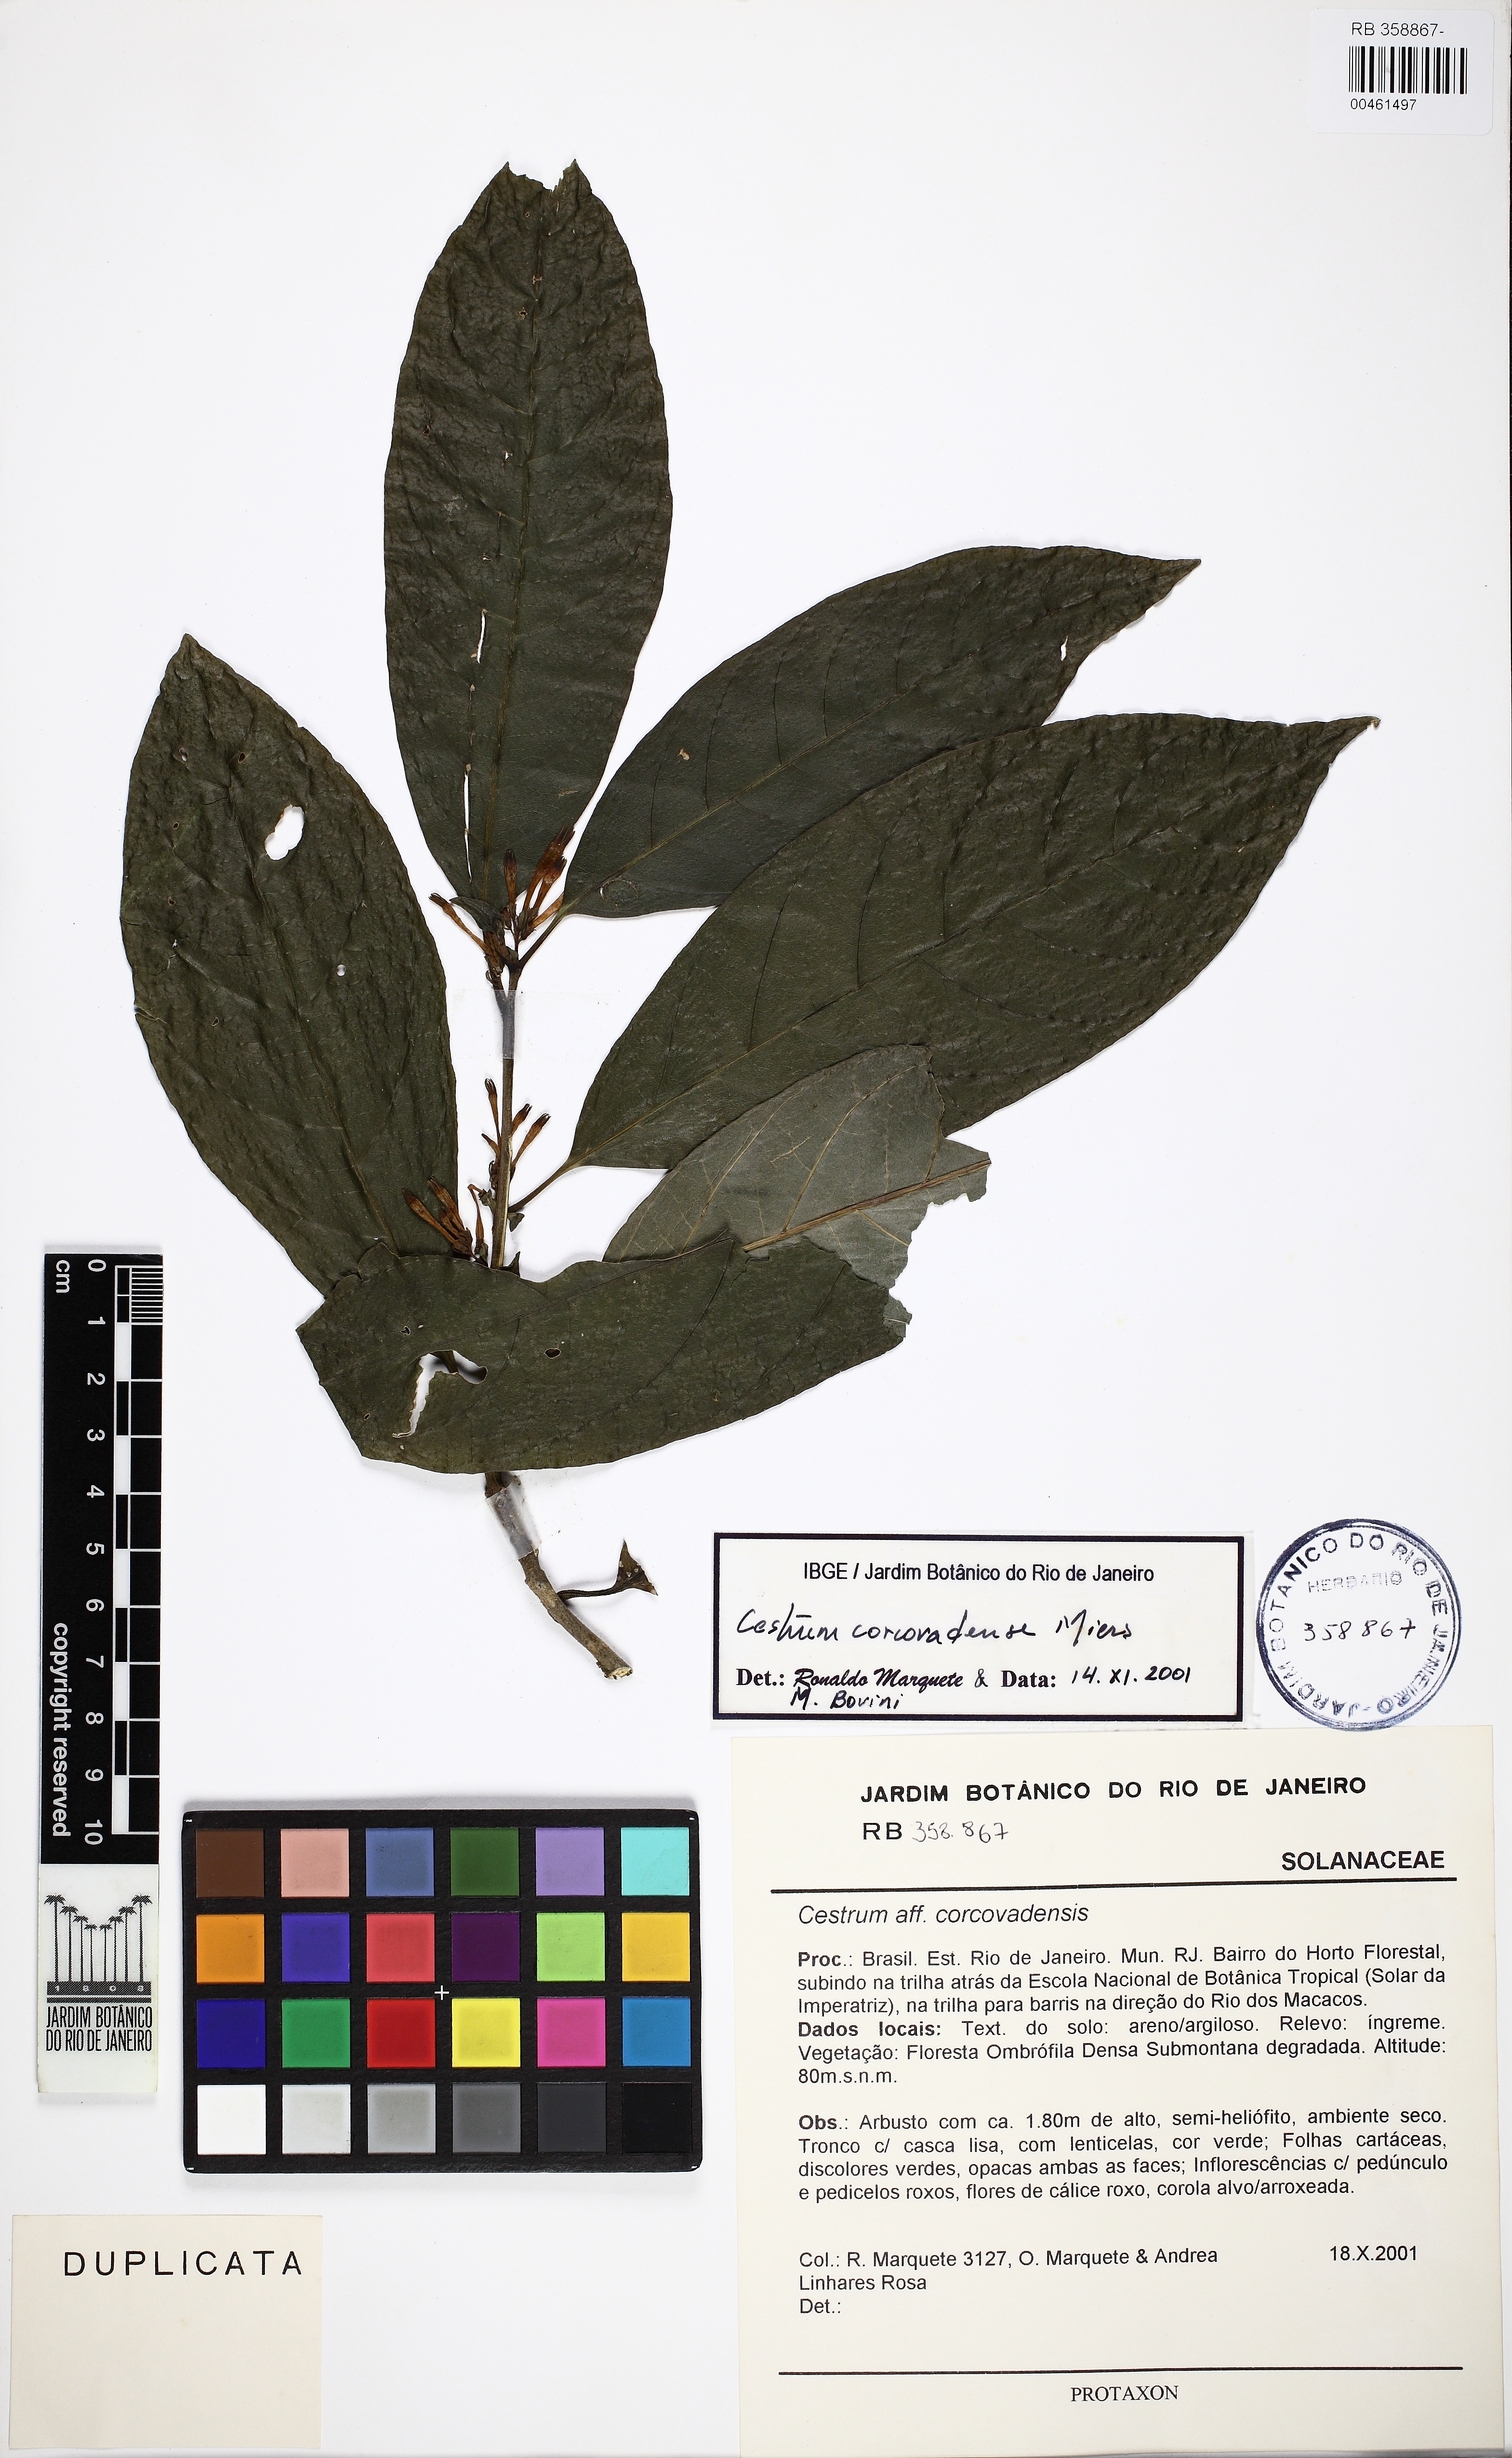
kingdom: Plantae
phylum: Tracheophyta
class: Magnoliopsida
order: Solanales
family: Solanaceae
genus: Cestrum
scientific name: Cestrum corcovadense
